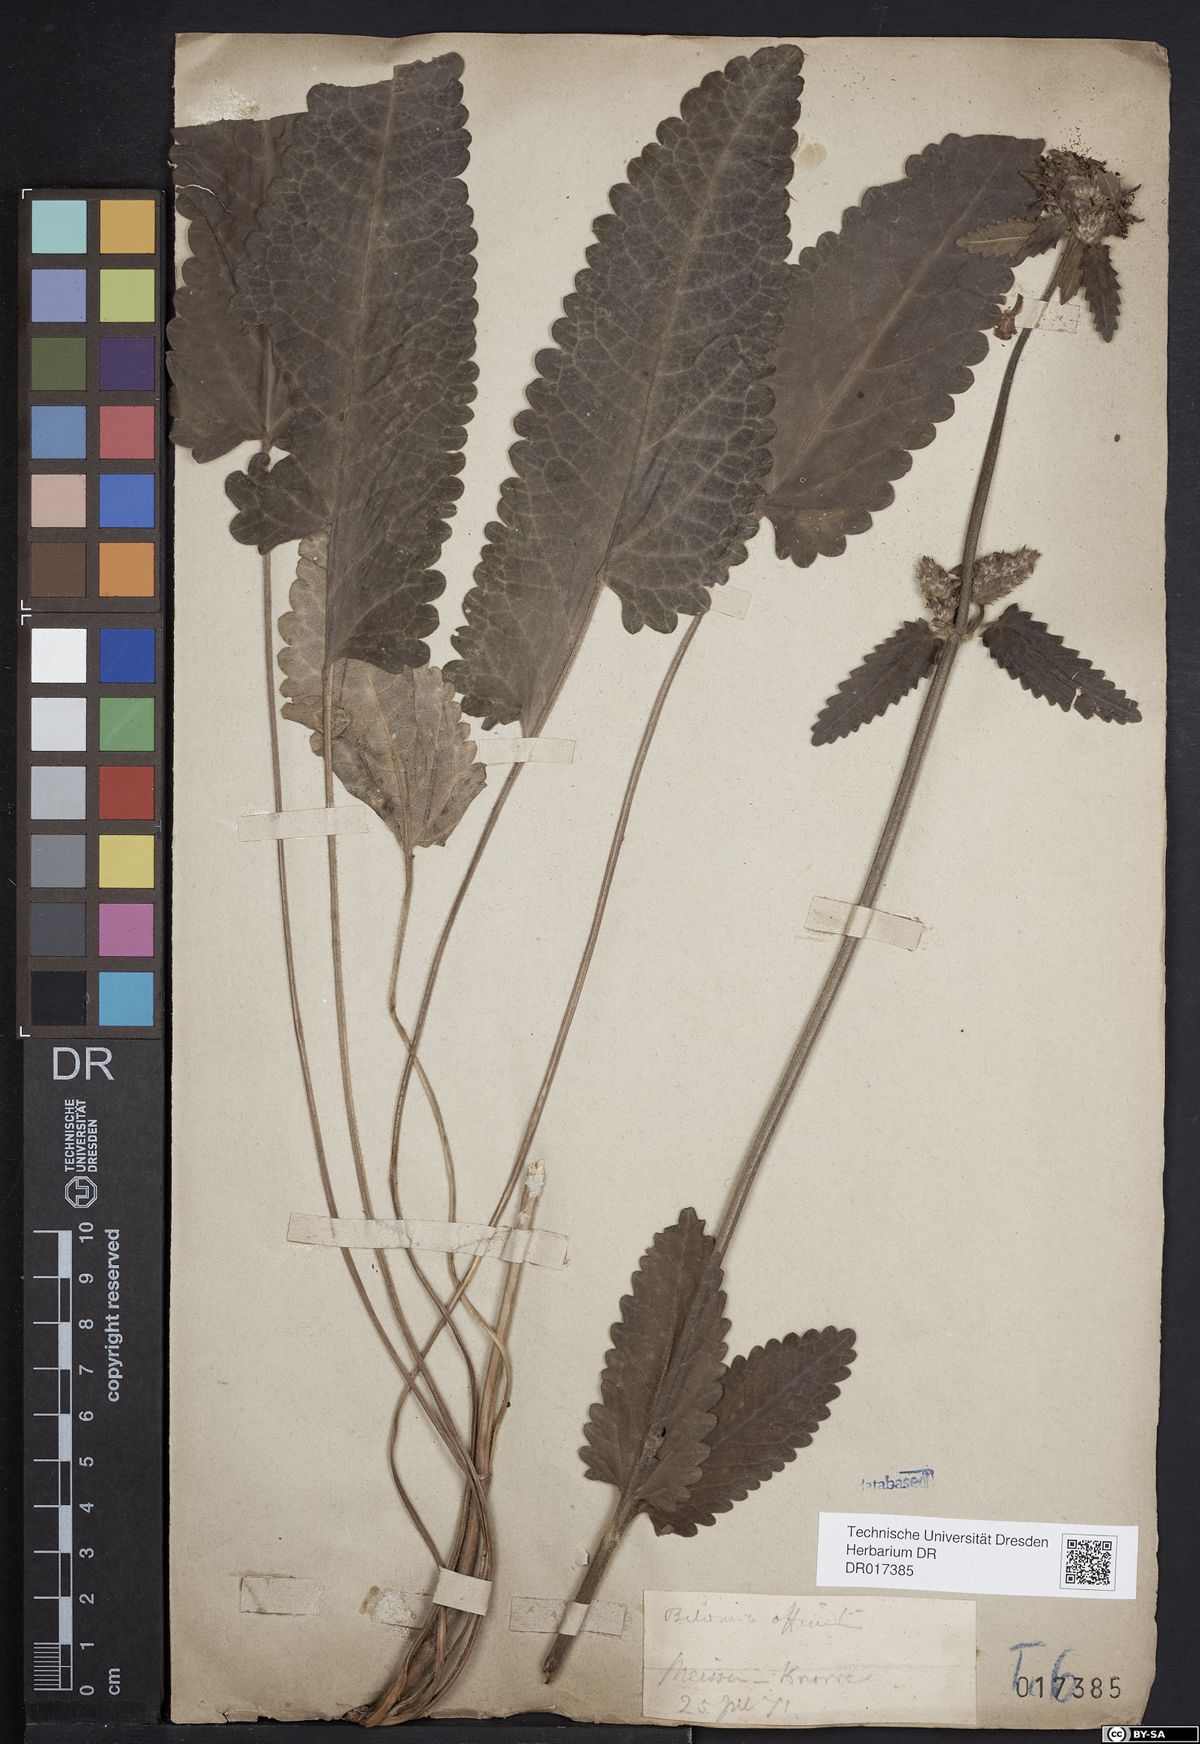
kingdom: Plantae
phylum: Tracheophyta
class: Magnoliopsida
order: Lamiales
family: Lamiaceae
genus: Betonica
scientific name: Betonica officinalis
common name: Bishop's-wort
